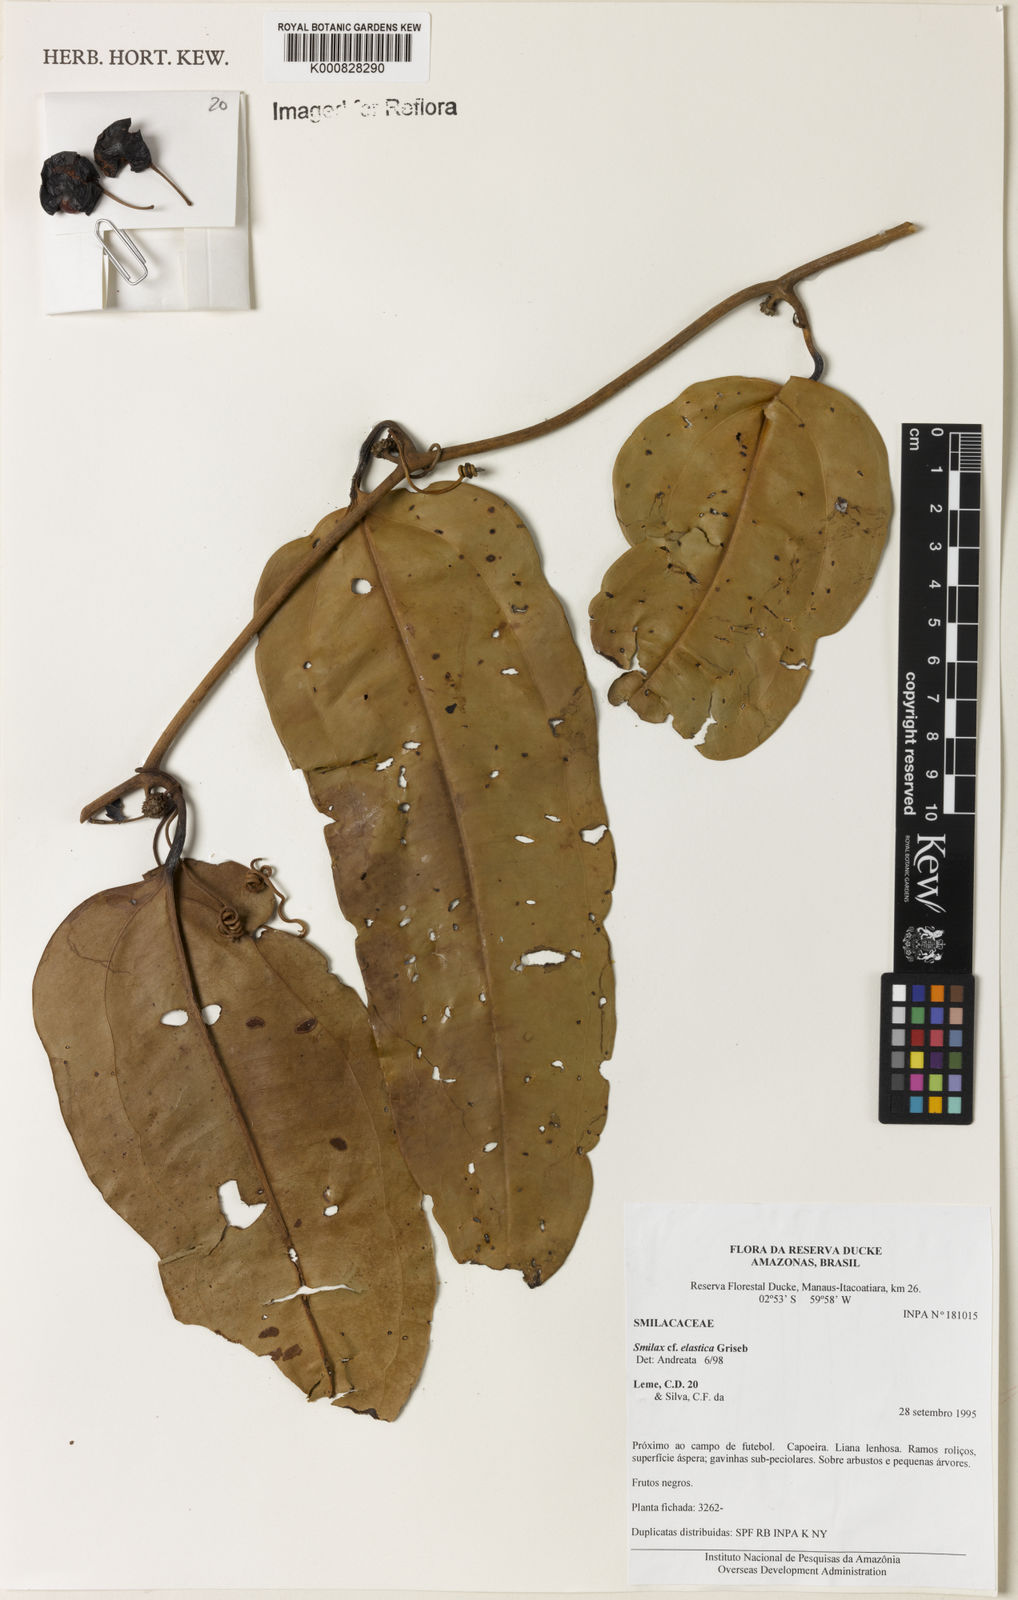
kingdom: Plantae
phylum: Tracheophyta
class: Liliopsida
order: Liliales
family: Smilacaceae
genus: Smilax
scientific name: Smilax elastica
